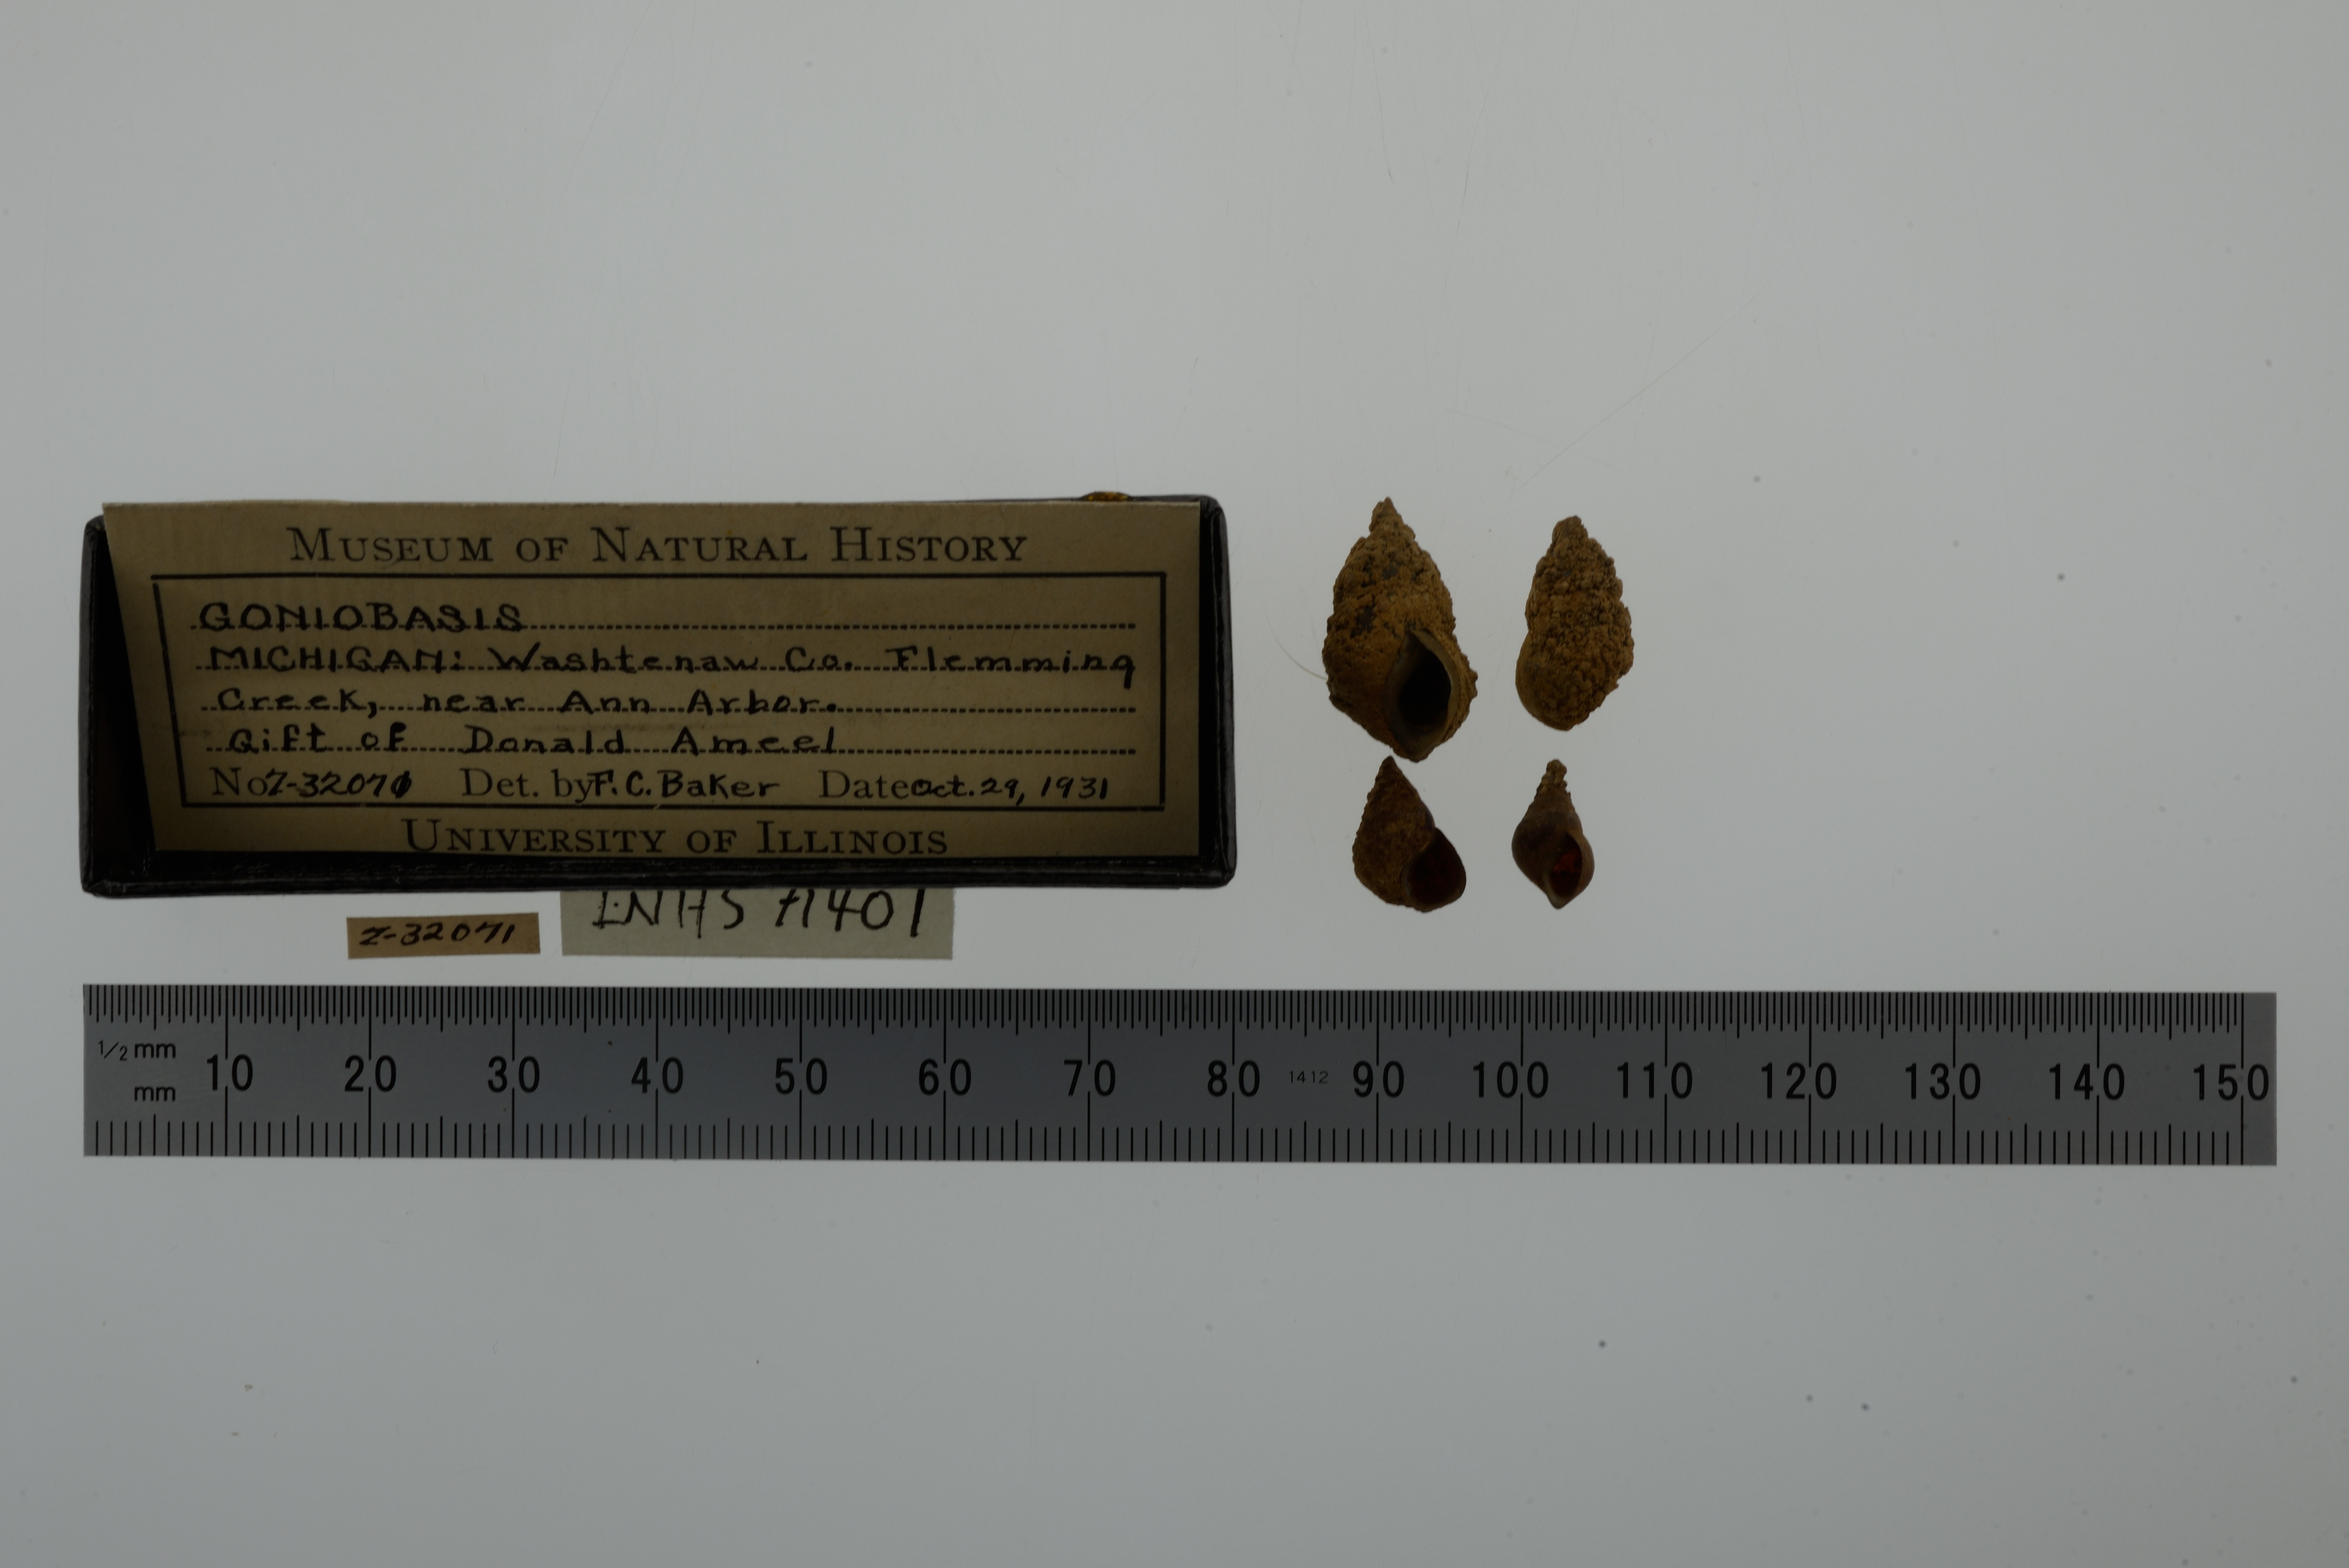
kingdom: Animalia
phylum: Mollusca
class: Gastropoda
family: Pleuroceridae
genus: Elimia
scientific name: Elimia livescens
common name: Liver elimia
